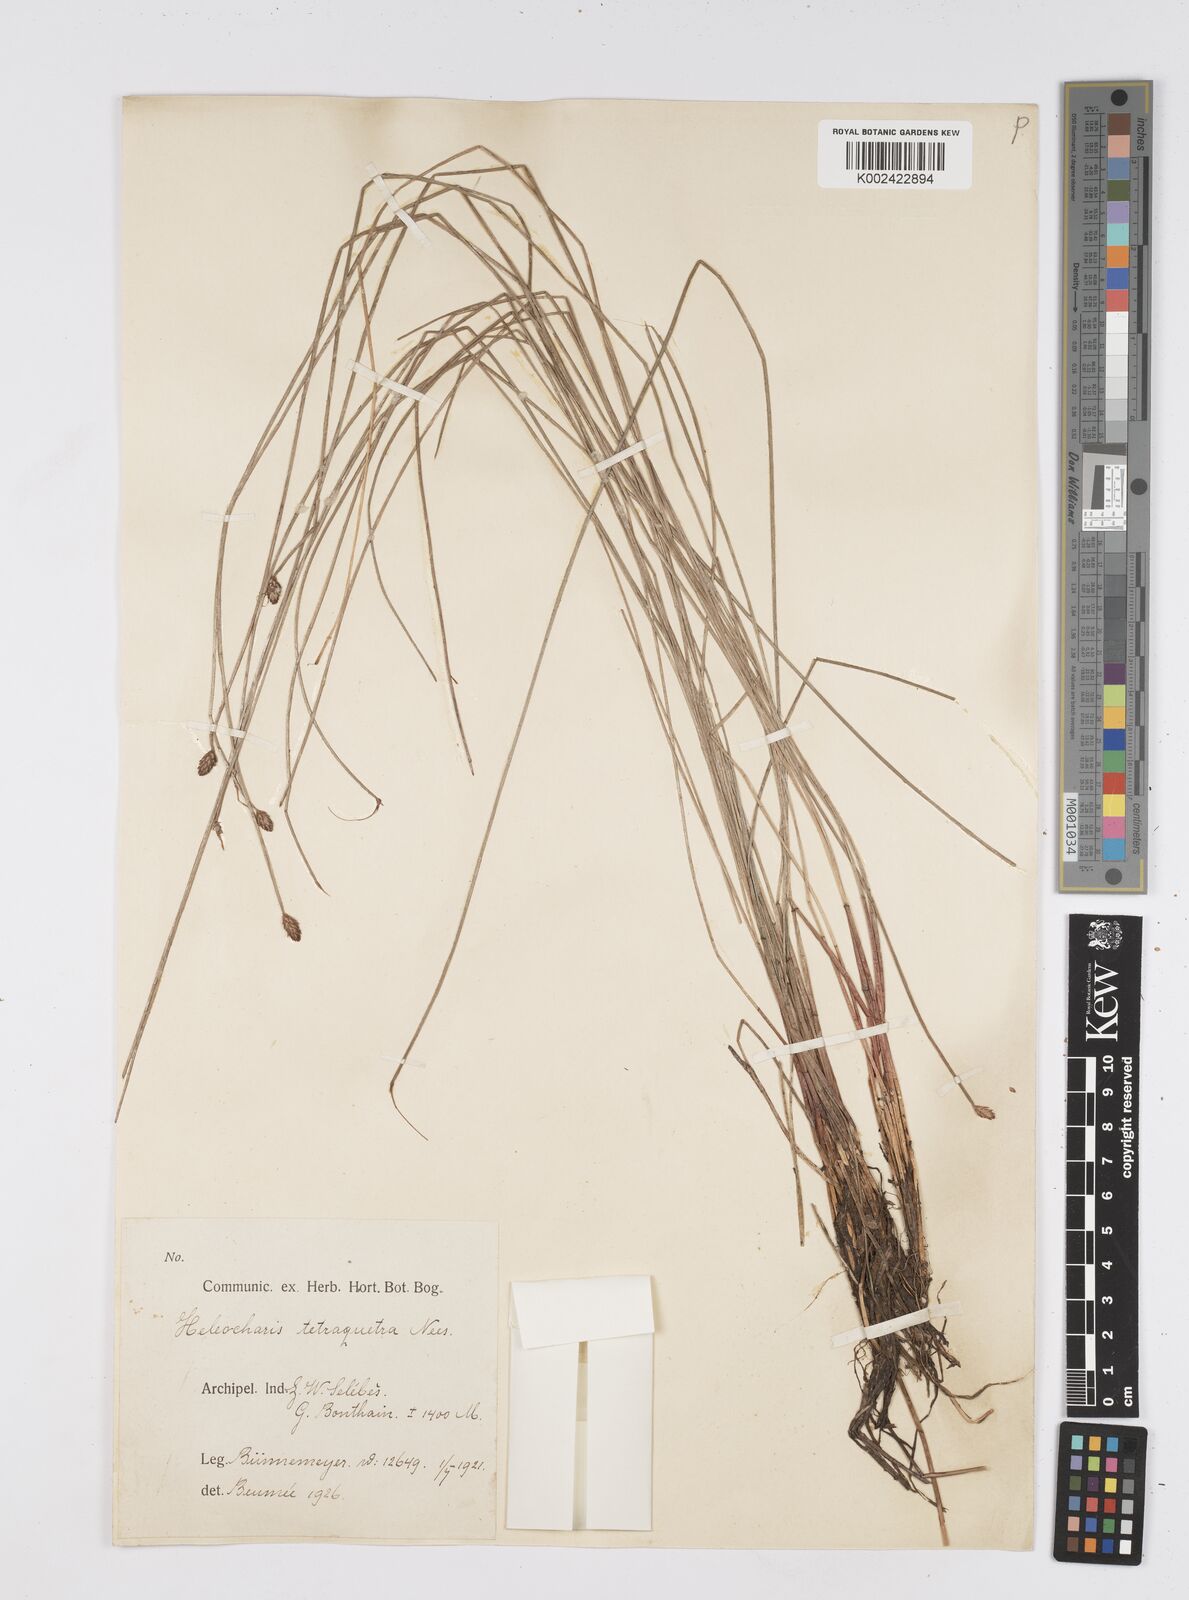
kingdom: Plantae
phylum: Tracheophyta
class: Liliopsida
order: Poales
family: Cyperaceae
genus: Eleocharis
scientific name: Eleocharis tetraquetra
